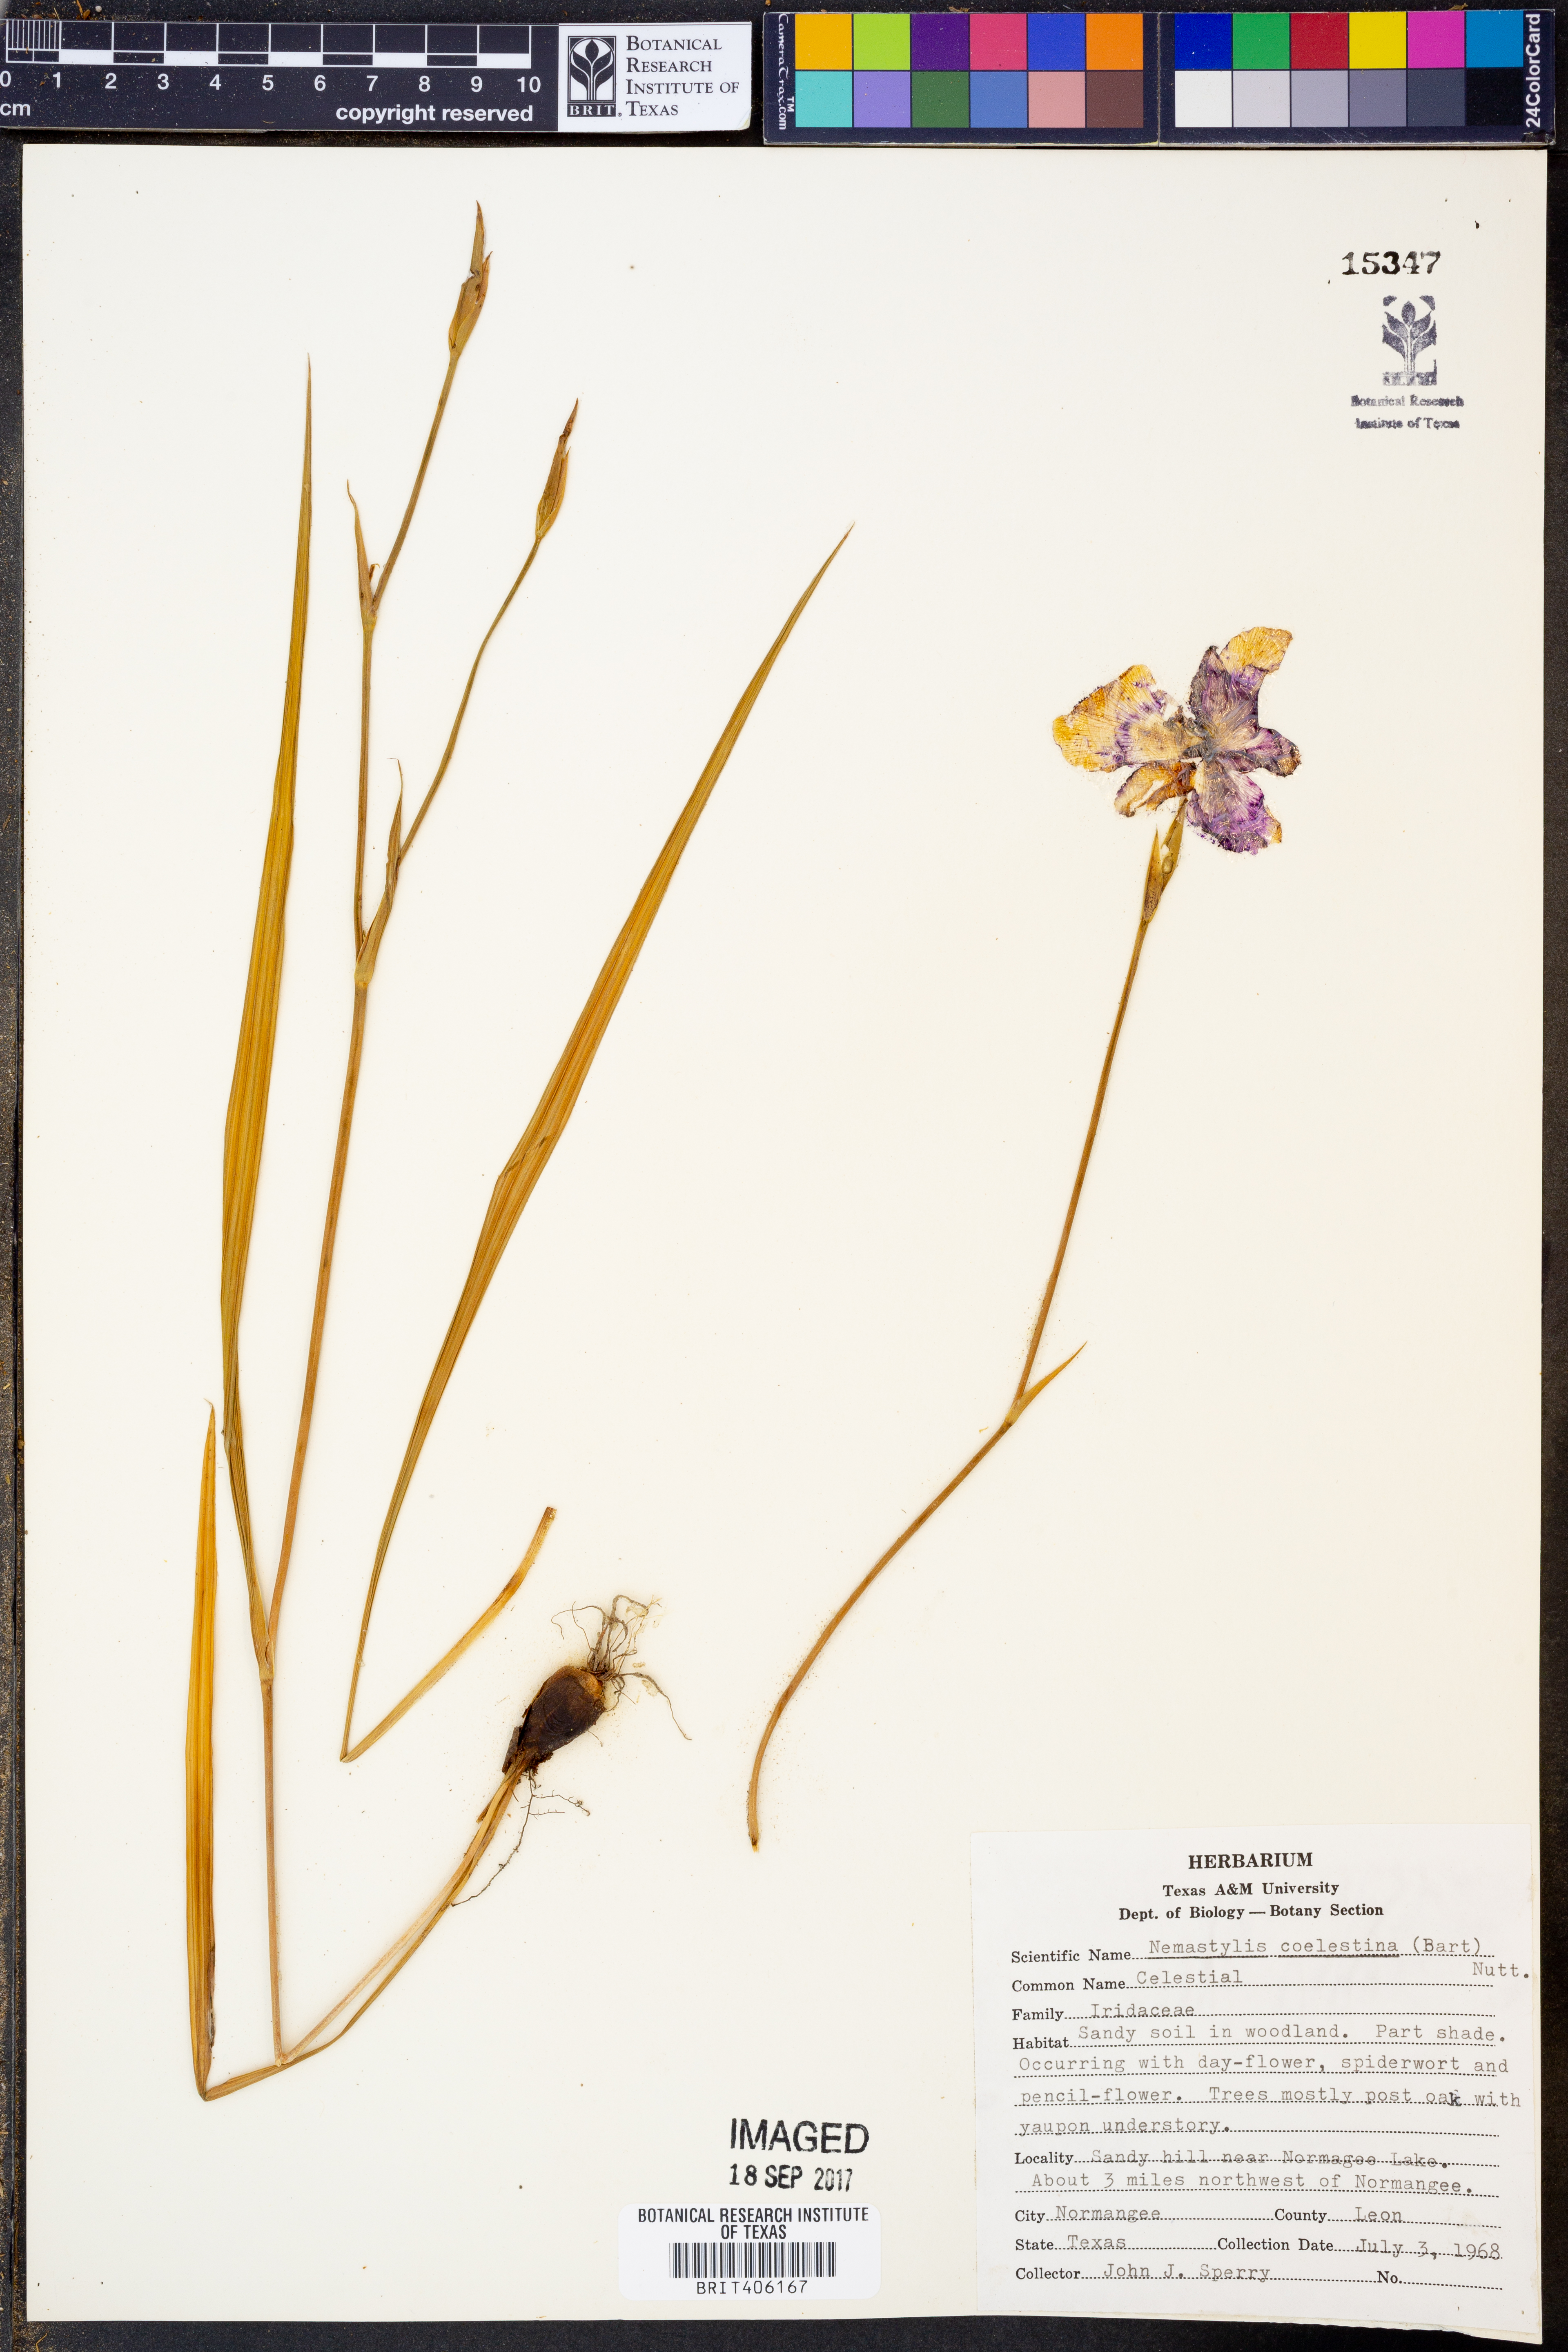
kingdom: Plantae
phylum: Tracheophyta
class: Liliopsida
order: Asparagales
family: Iridaceae
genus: Salpingostylis
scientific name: Salpingostylis coelestina
